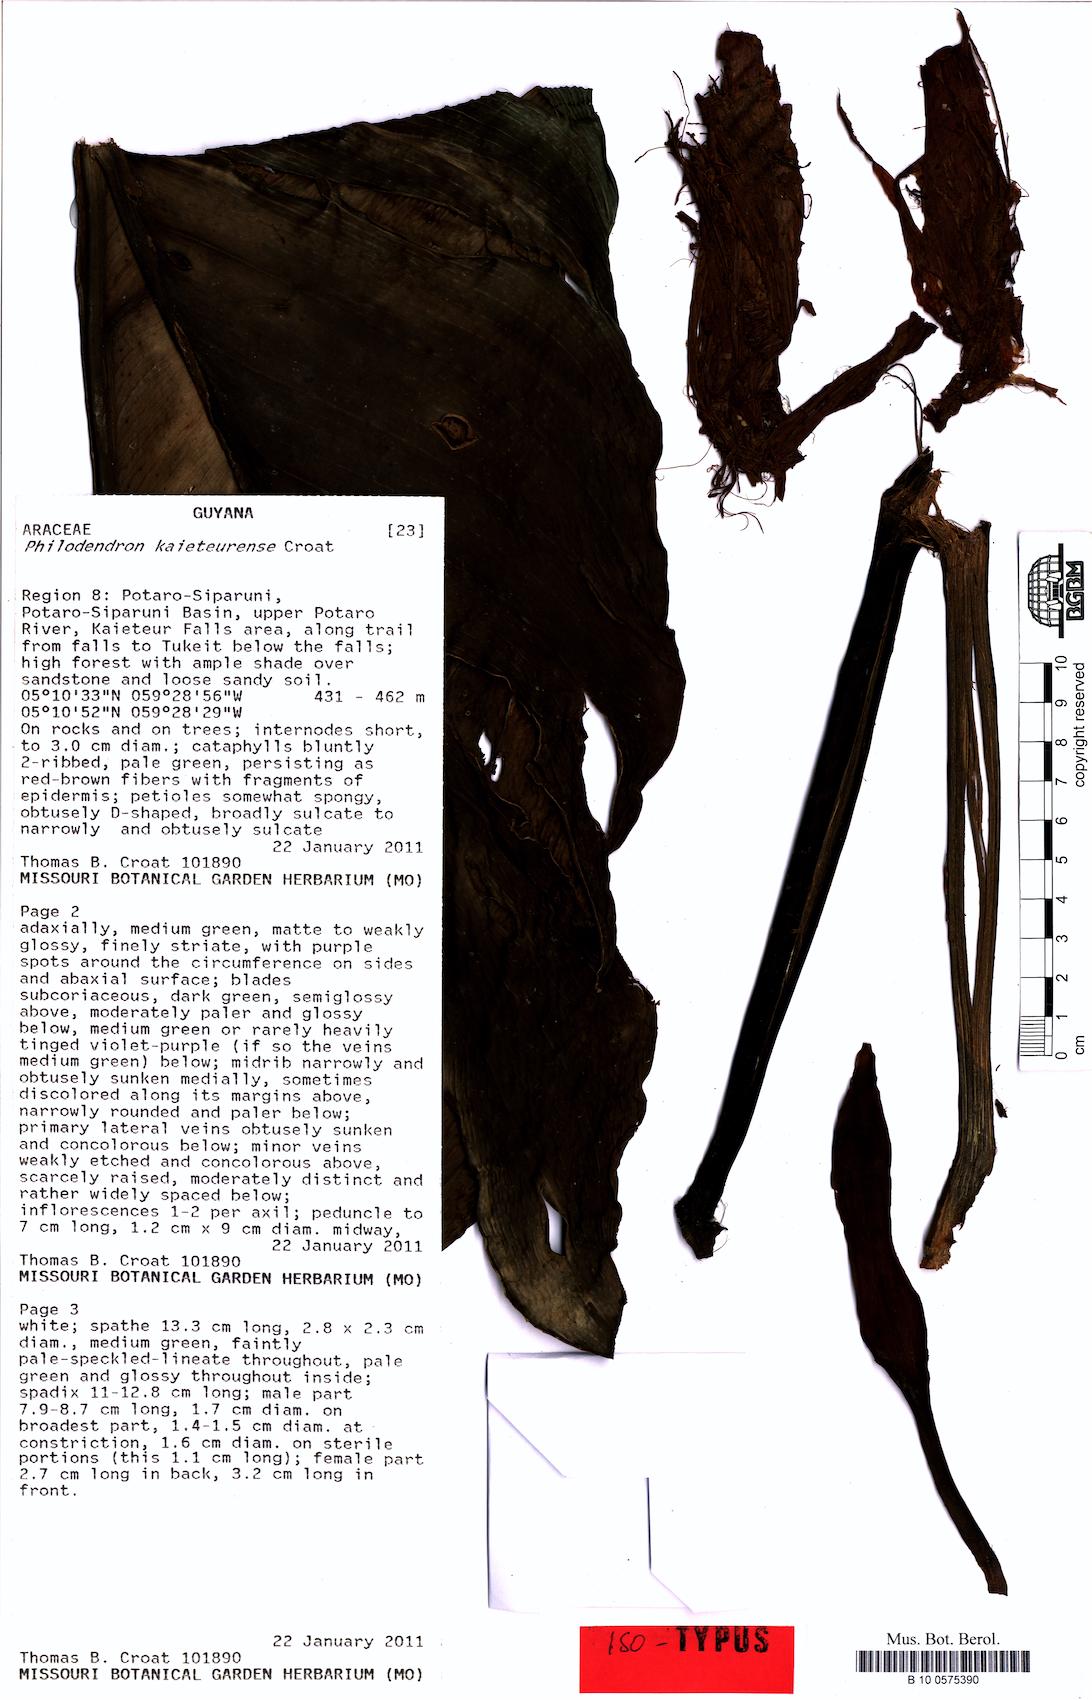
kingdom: Plantae
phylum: Tracheophyta
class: Liliopsida
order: Alismatales
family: Araceae
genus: Philodendron
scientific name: Philodendron kaieteurense
